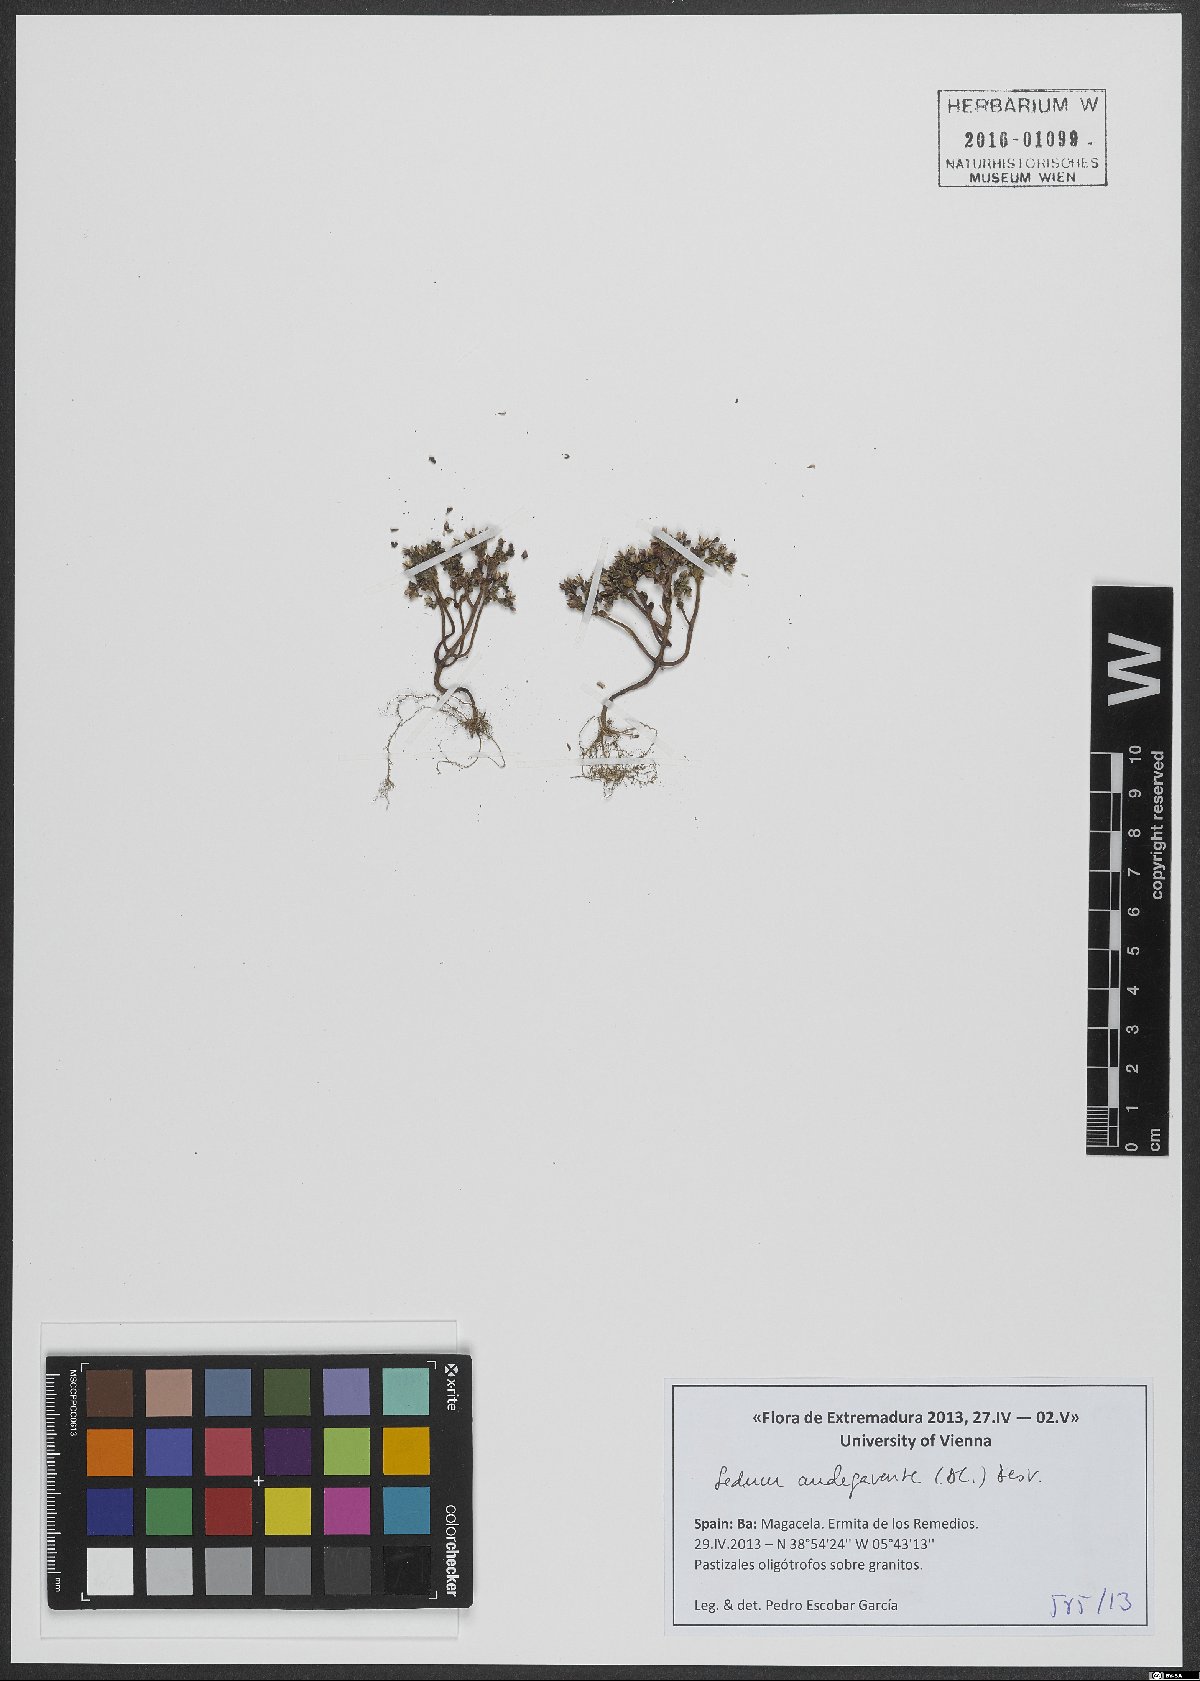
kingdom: Plantae
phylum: Tracheophyta
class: Magnoliopsida
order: Saxifragales
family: Crassulaceae
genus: Sedum
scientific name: Sedum andegavense
